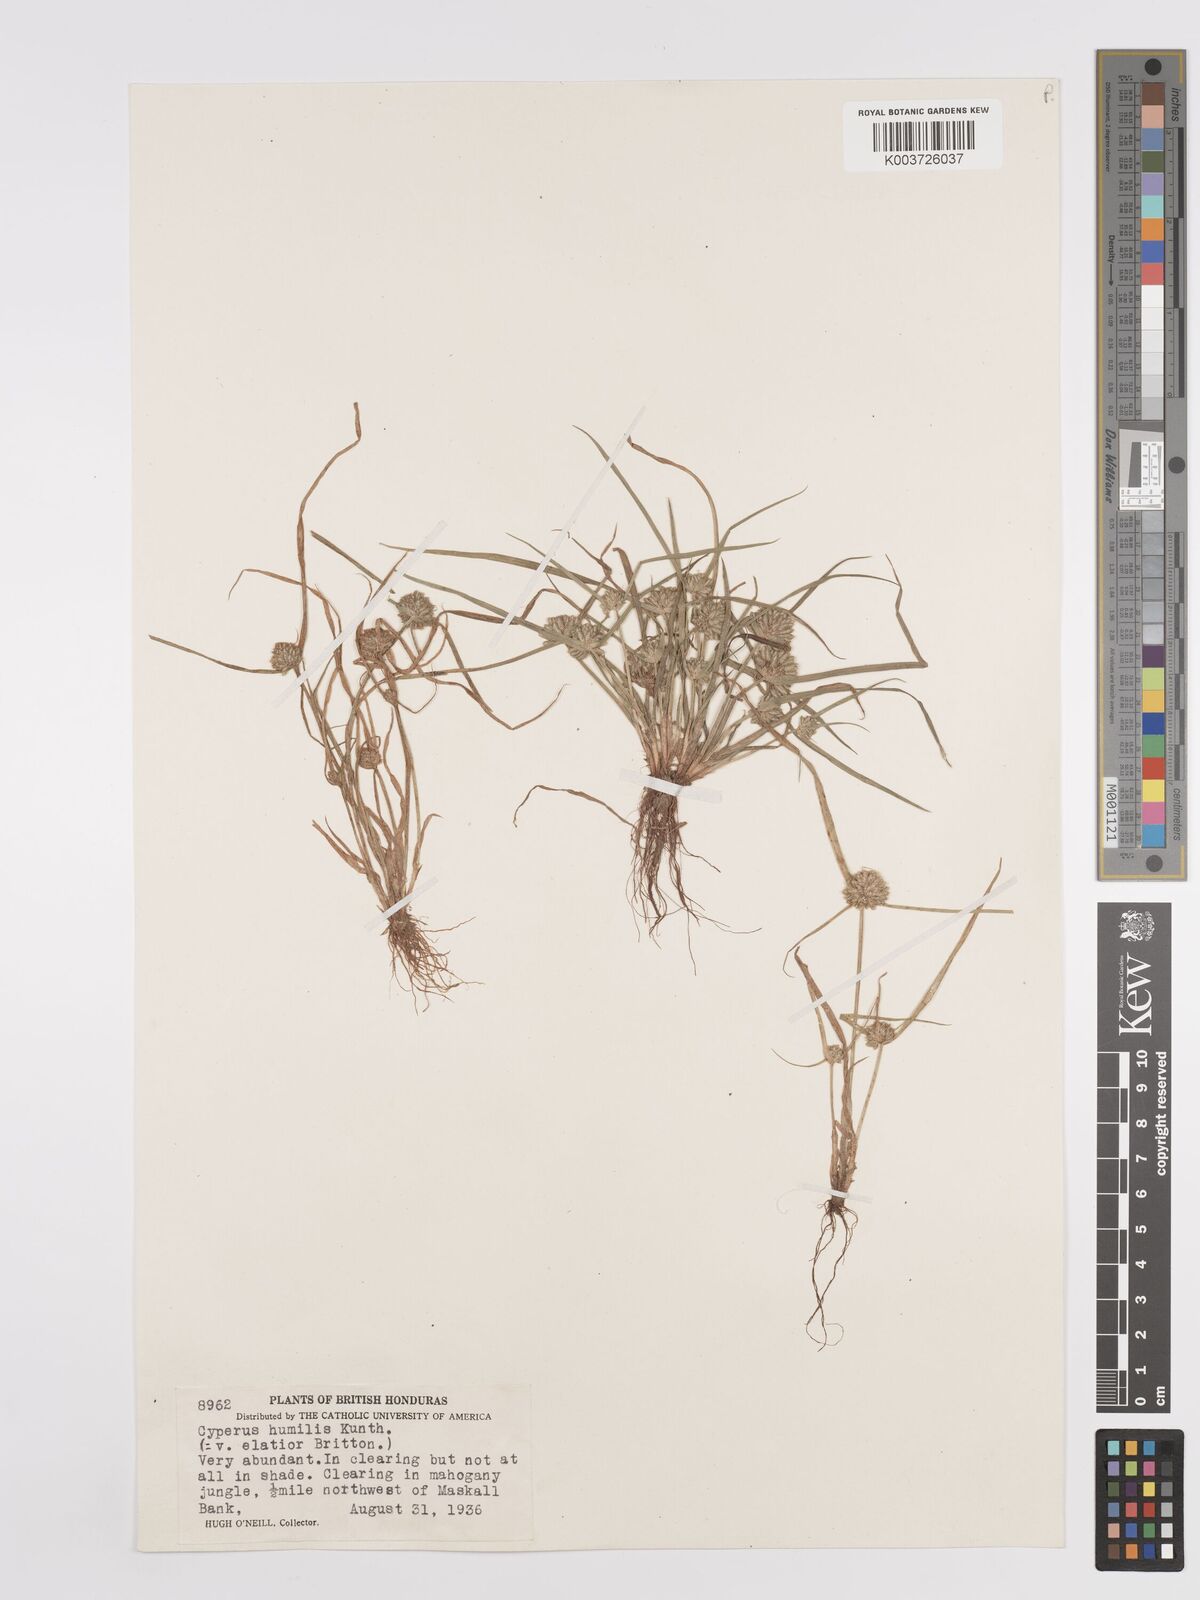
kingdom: Plantae
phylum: Tracheophyta
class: Liliopsida
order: Poales
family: Cyperaceae
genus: Cyperus
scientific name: Cyperus humilis
